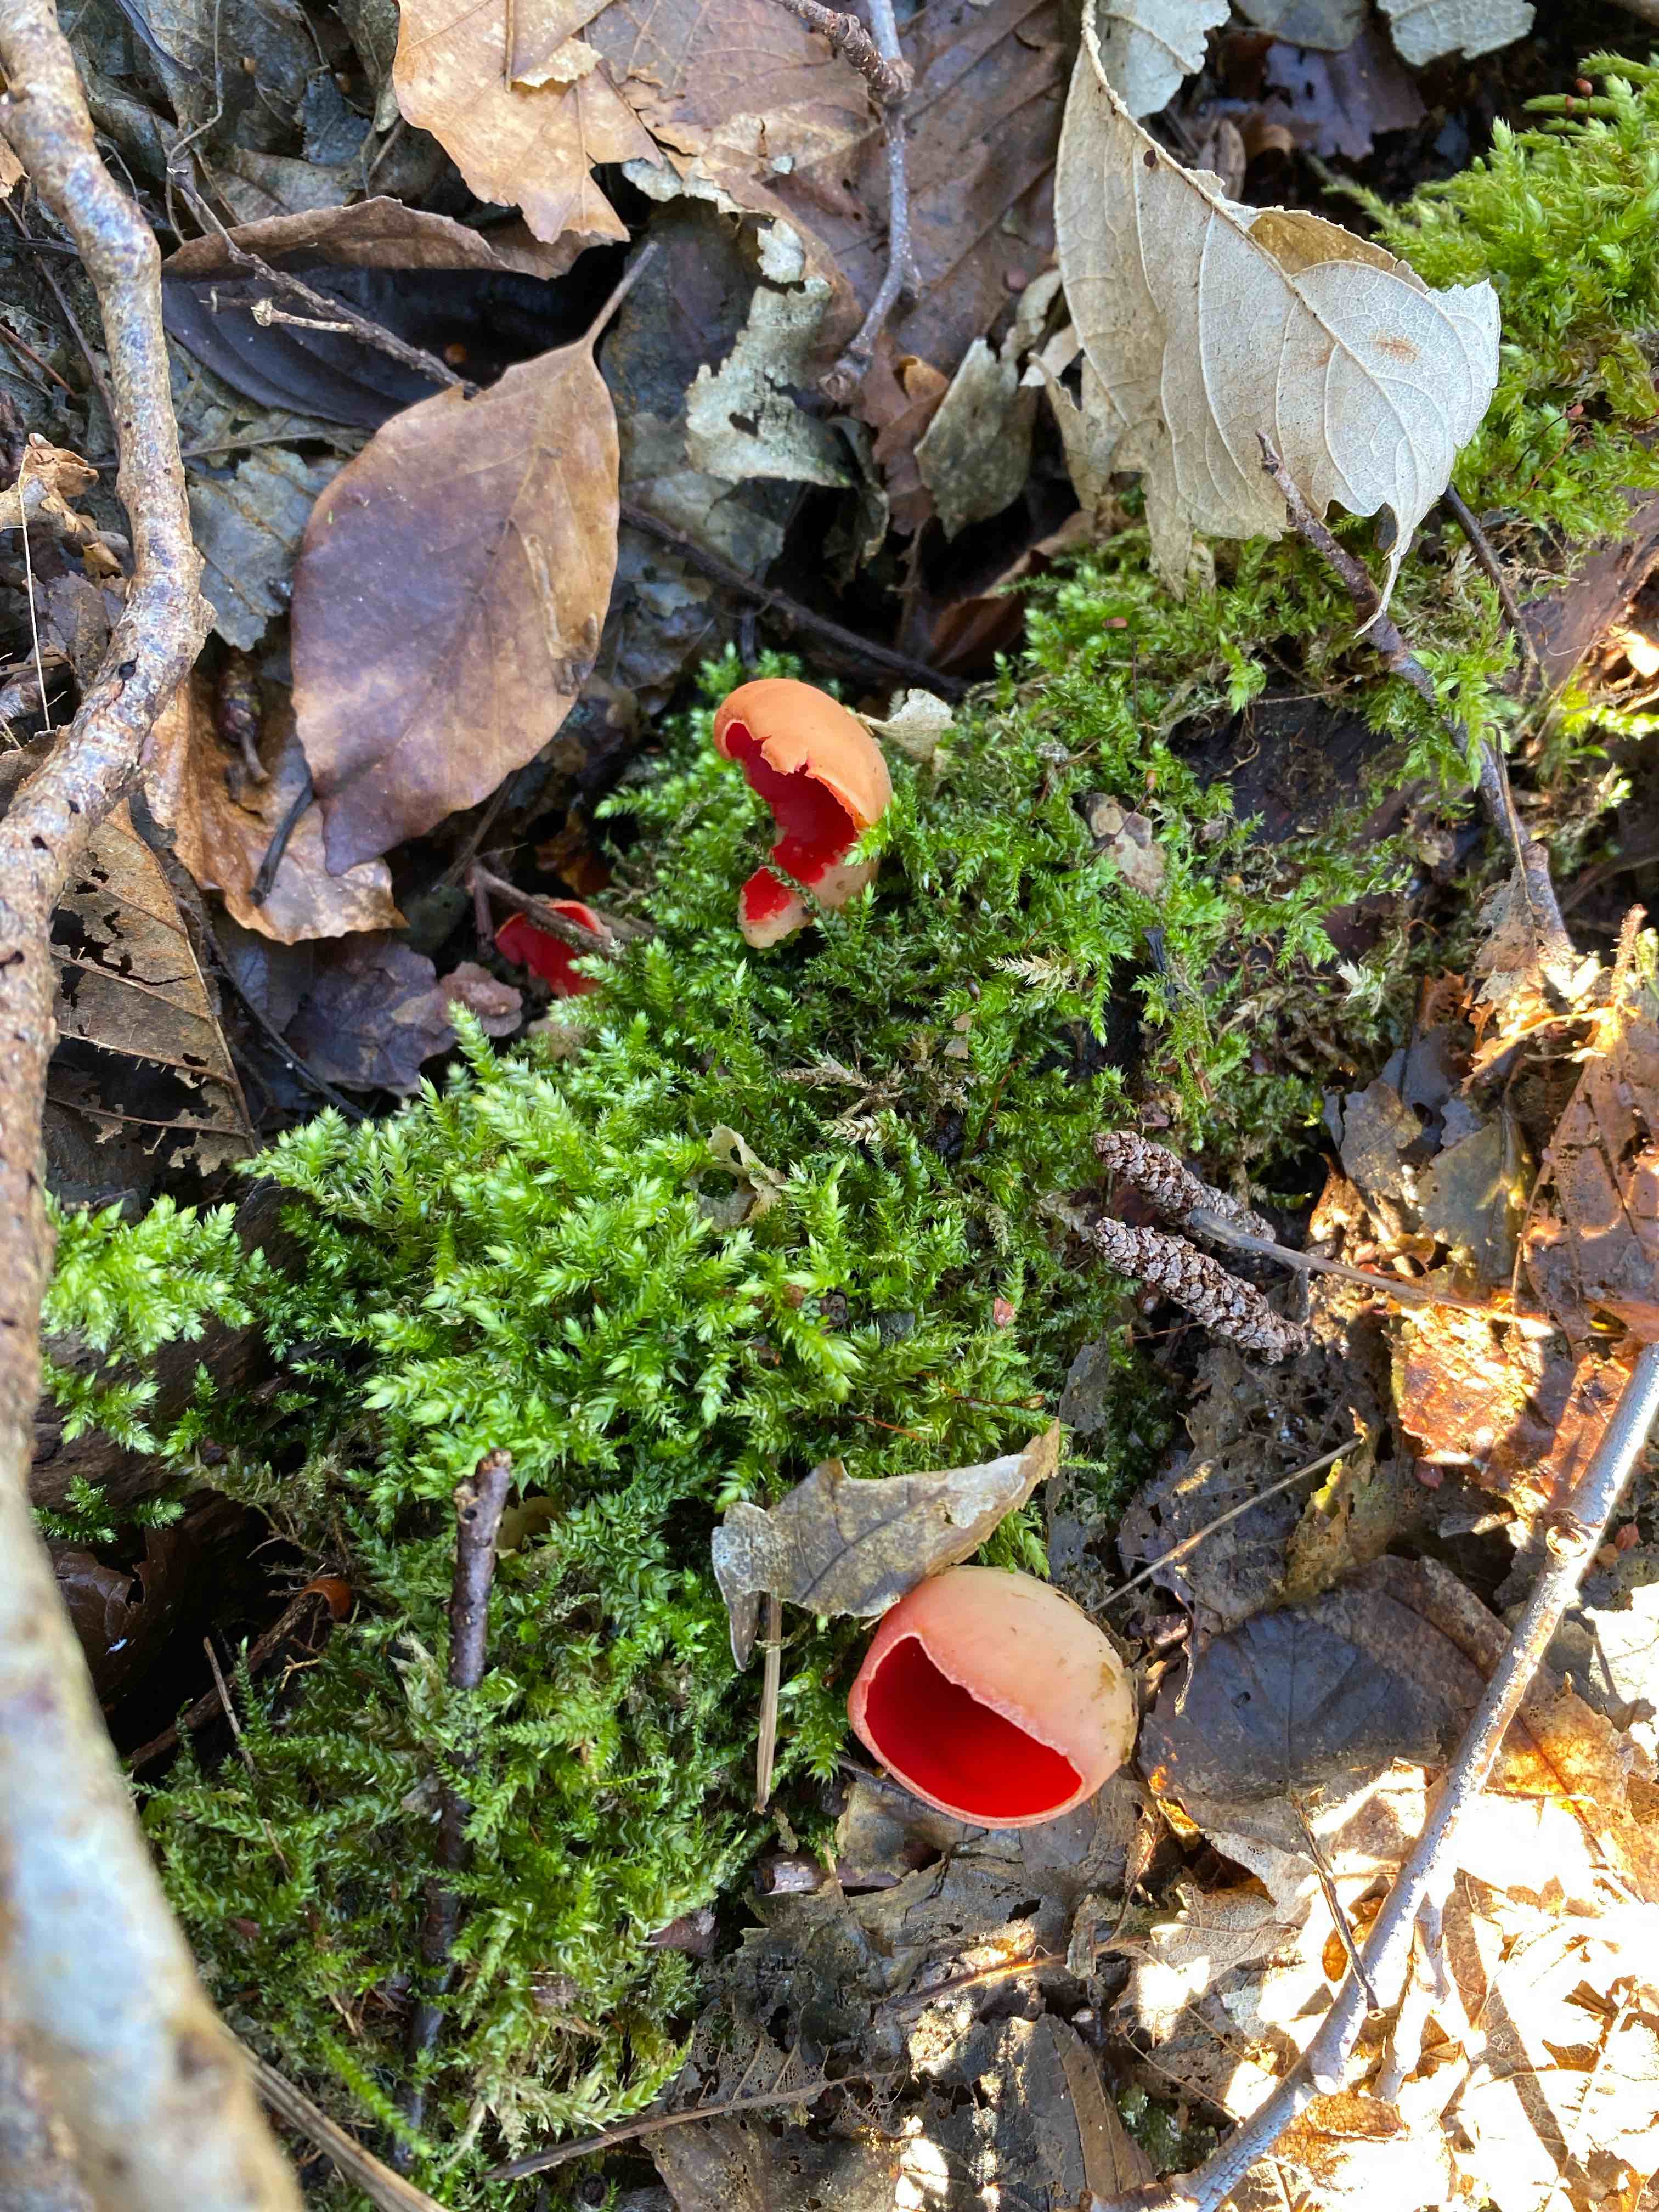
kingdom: Fungi
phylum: Ascomycota
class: Pezizomycetes
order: Pezizales
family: Sarcoscyphaceae
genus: Sarcoscypha
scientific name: Sarcoscypha austriaca
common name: krølhåret pragtbæger
